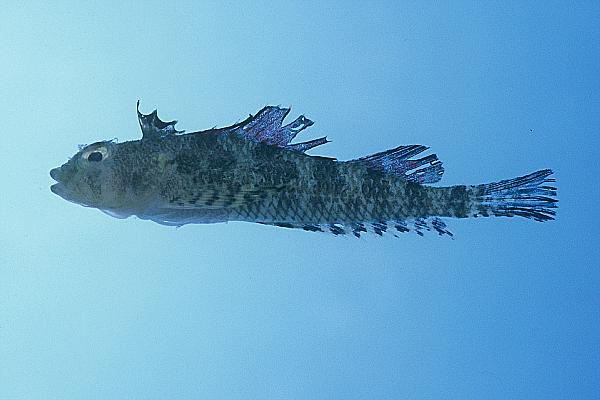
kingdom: Animalia
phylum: Chordata
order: Perciformes
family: Tripterygiidae
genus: Norfolkia
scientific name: Norfolkia brachylepis
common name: Tropical scaly-headed triplefin
